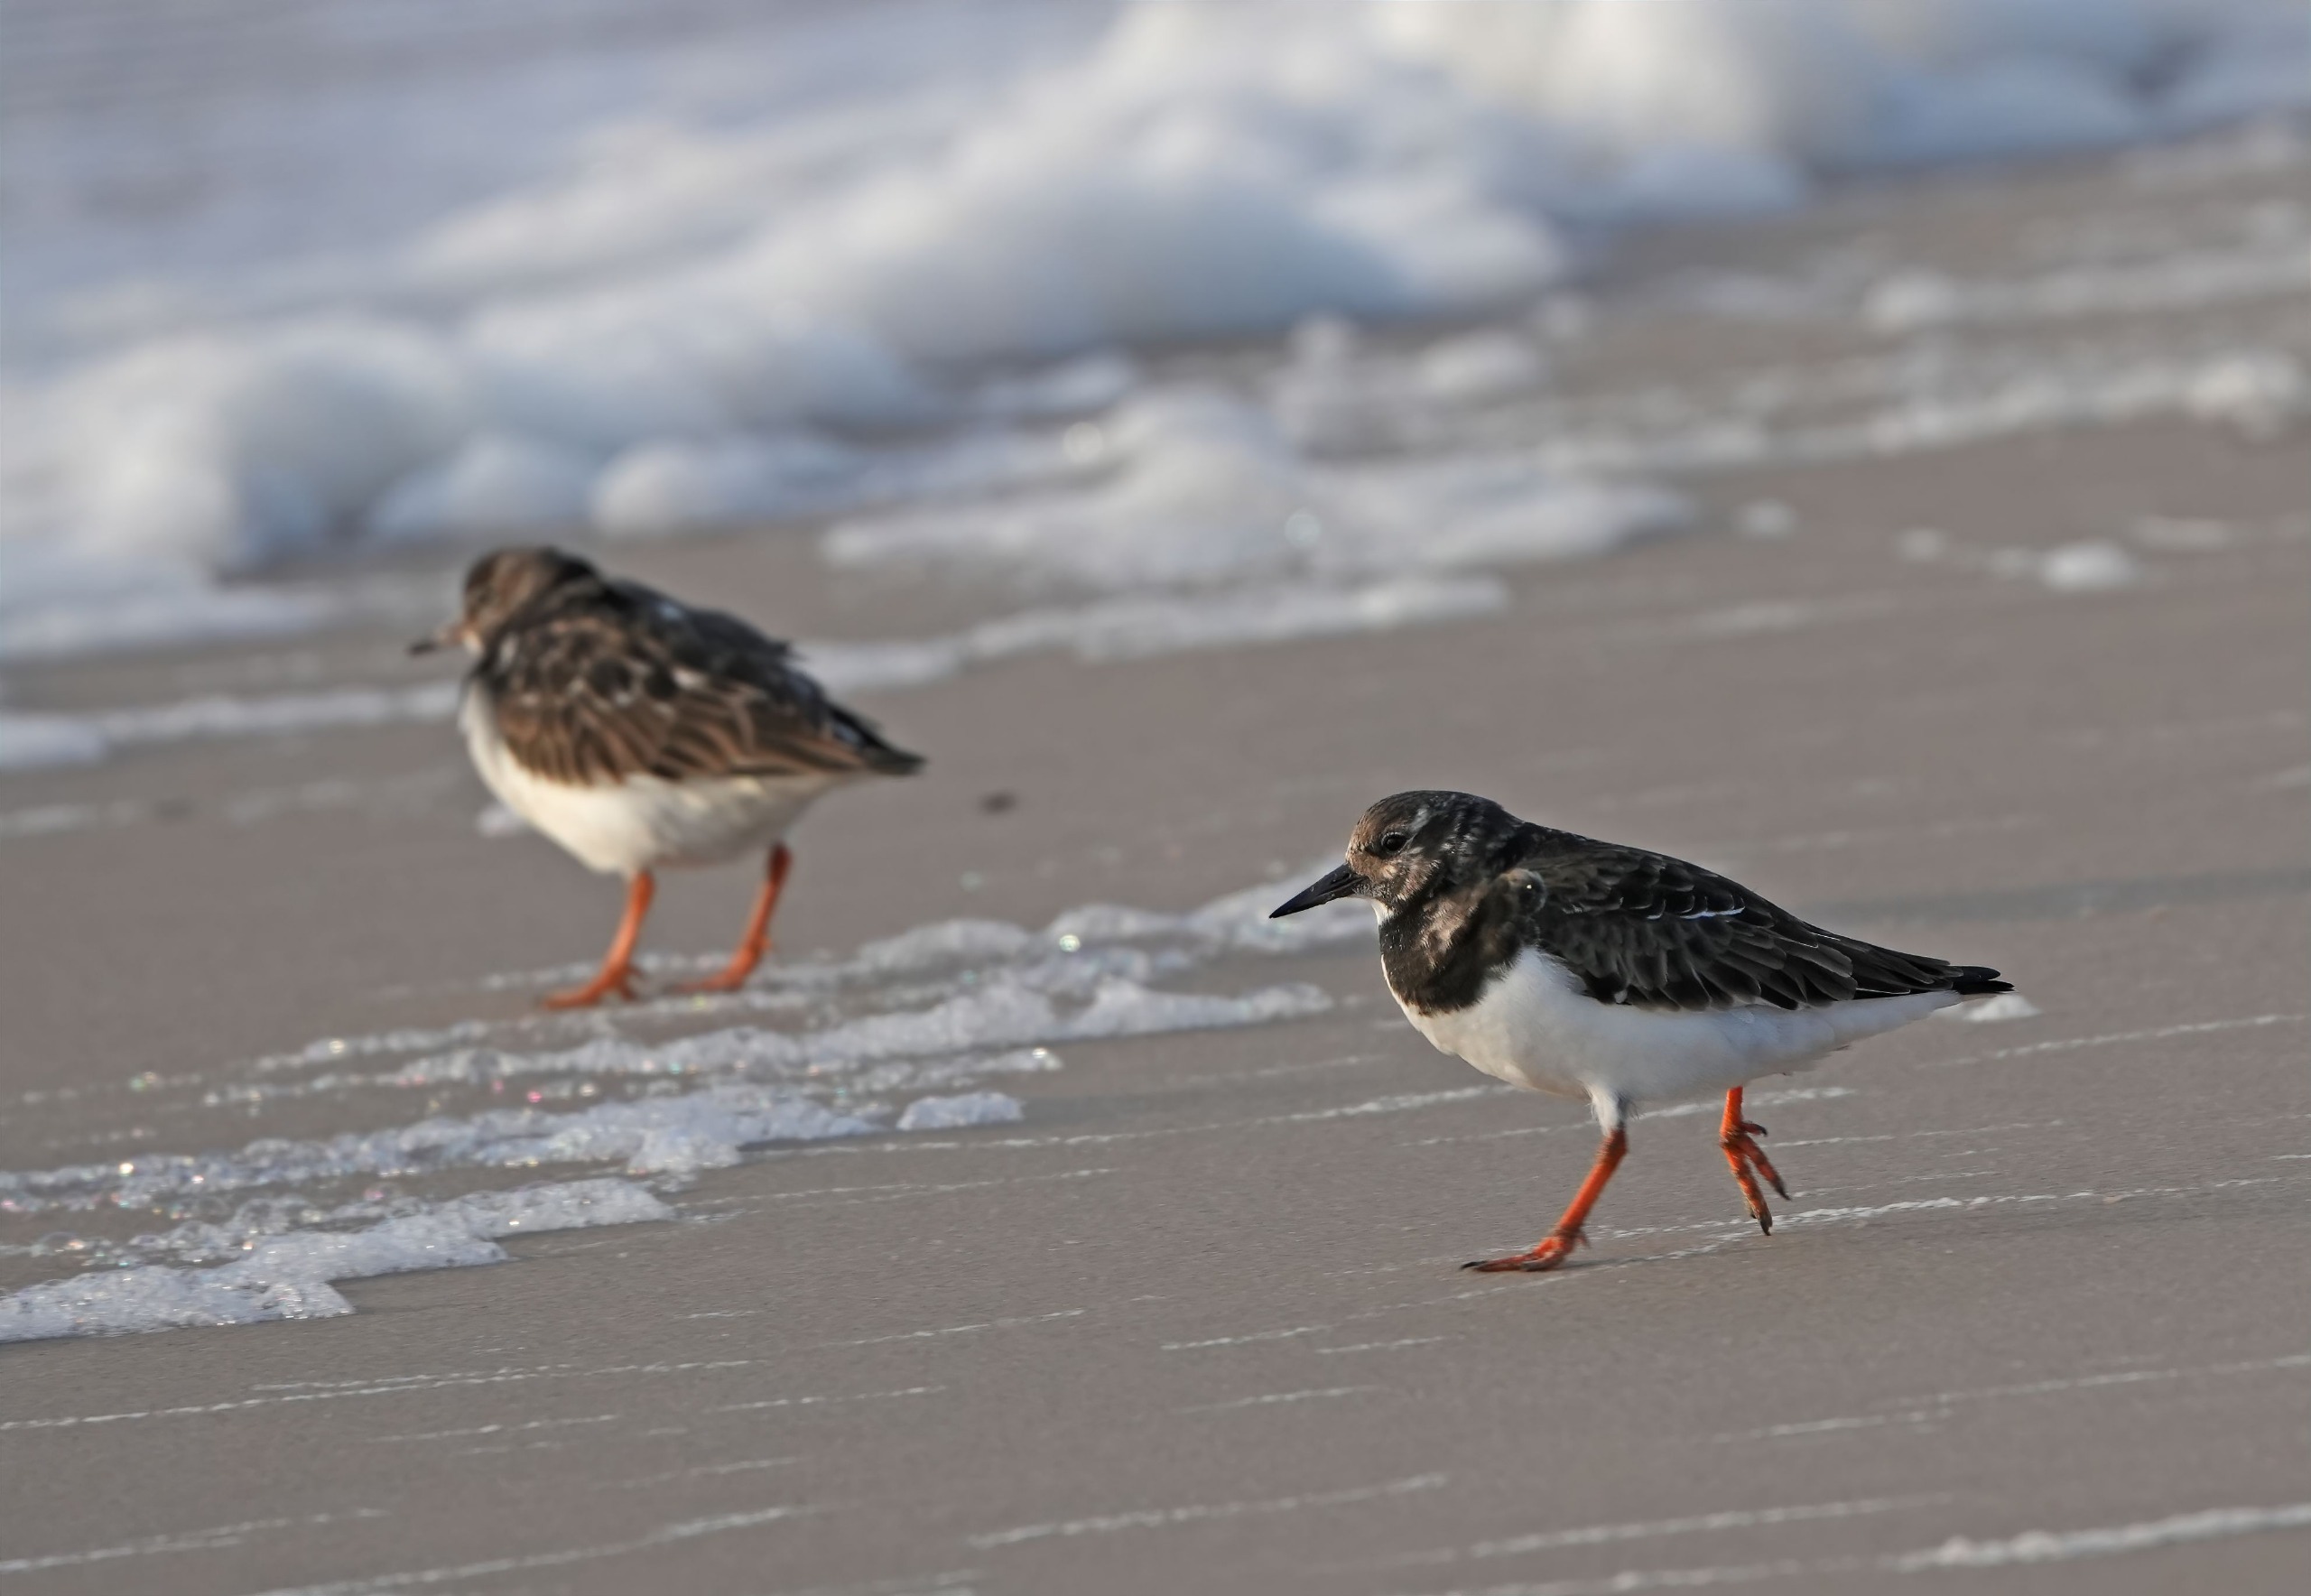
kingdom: Animalia
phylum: Chordata
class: Aves
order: Charadriiformes
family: Scolopacidae
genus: Arenaria
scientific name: Arenaria interpres
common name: Stenvender
